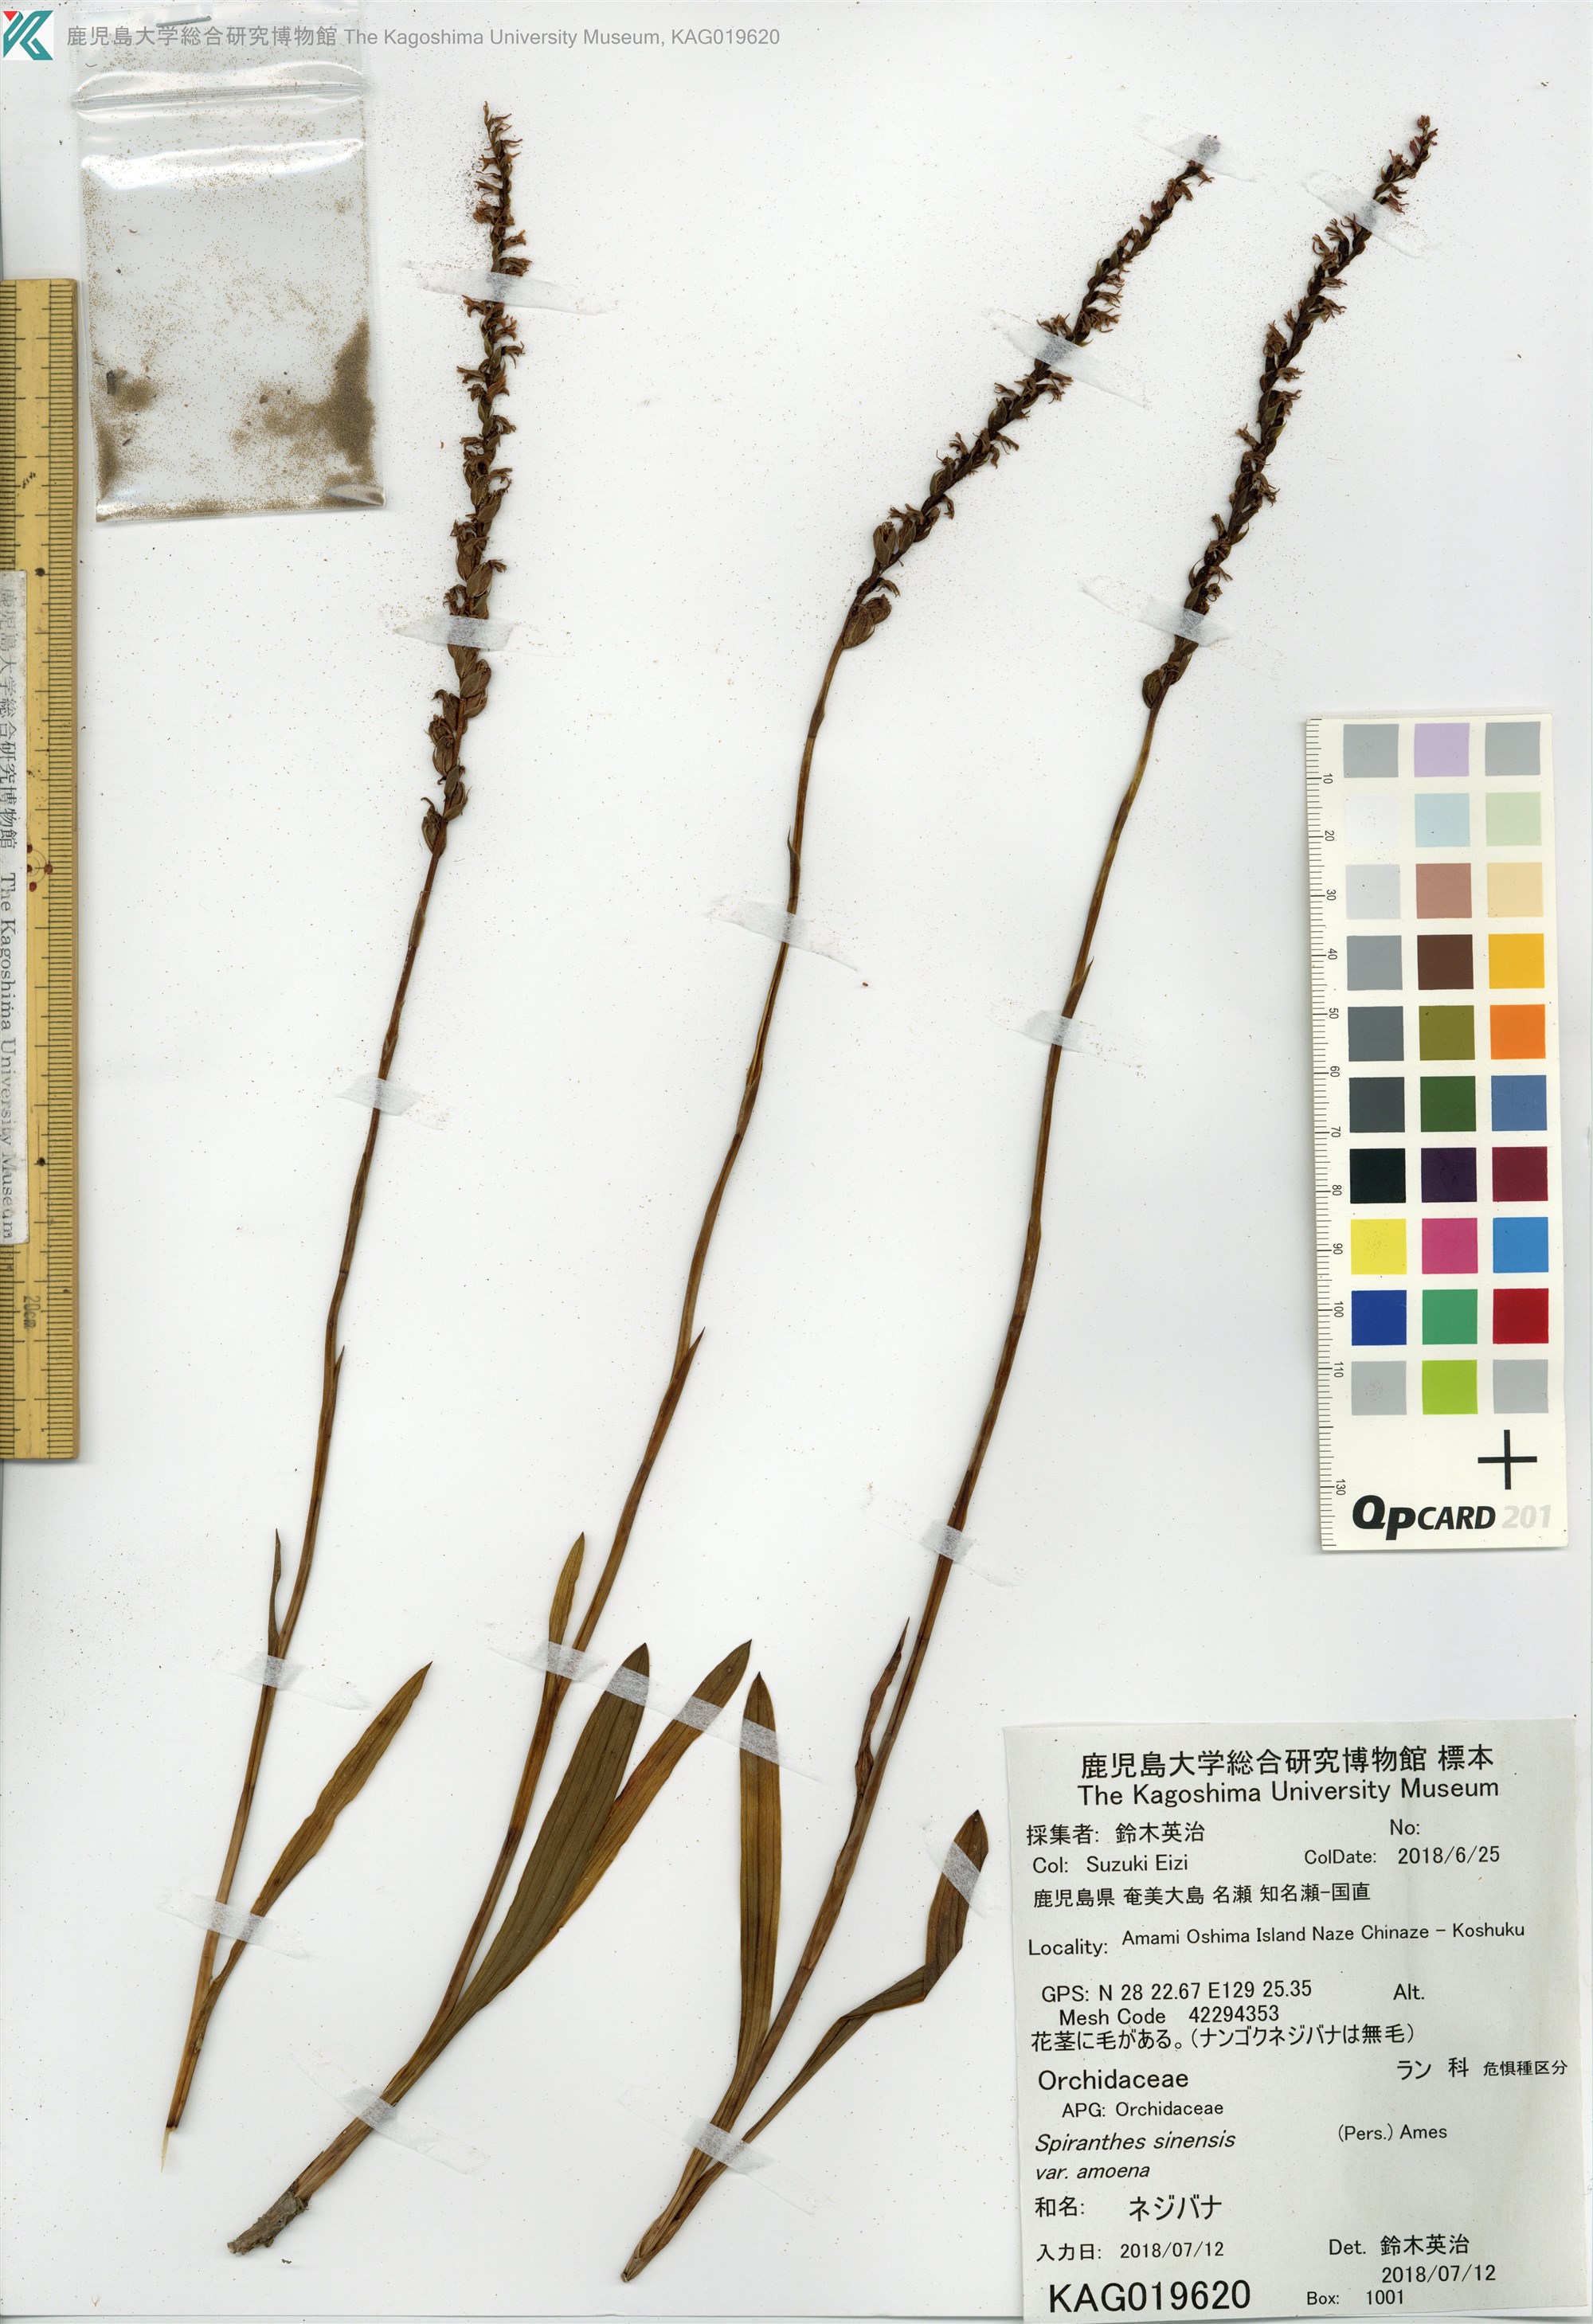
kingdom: Plantae
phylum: Tracheophyta
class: Liliopsida
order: Asparagales
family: Orchidaceae
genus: Spiranthes
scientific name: Spiranthes sinensis
